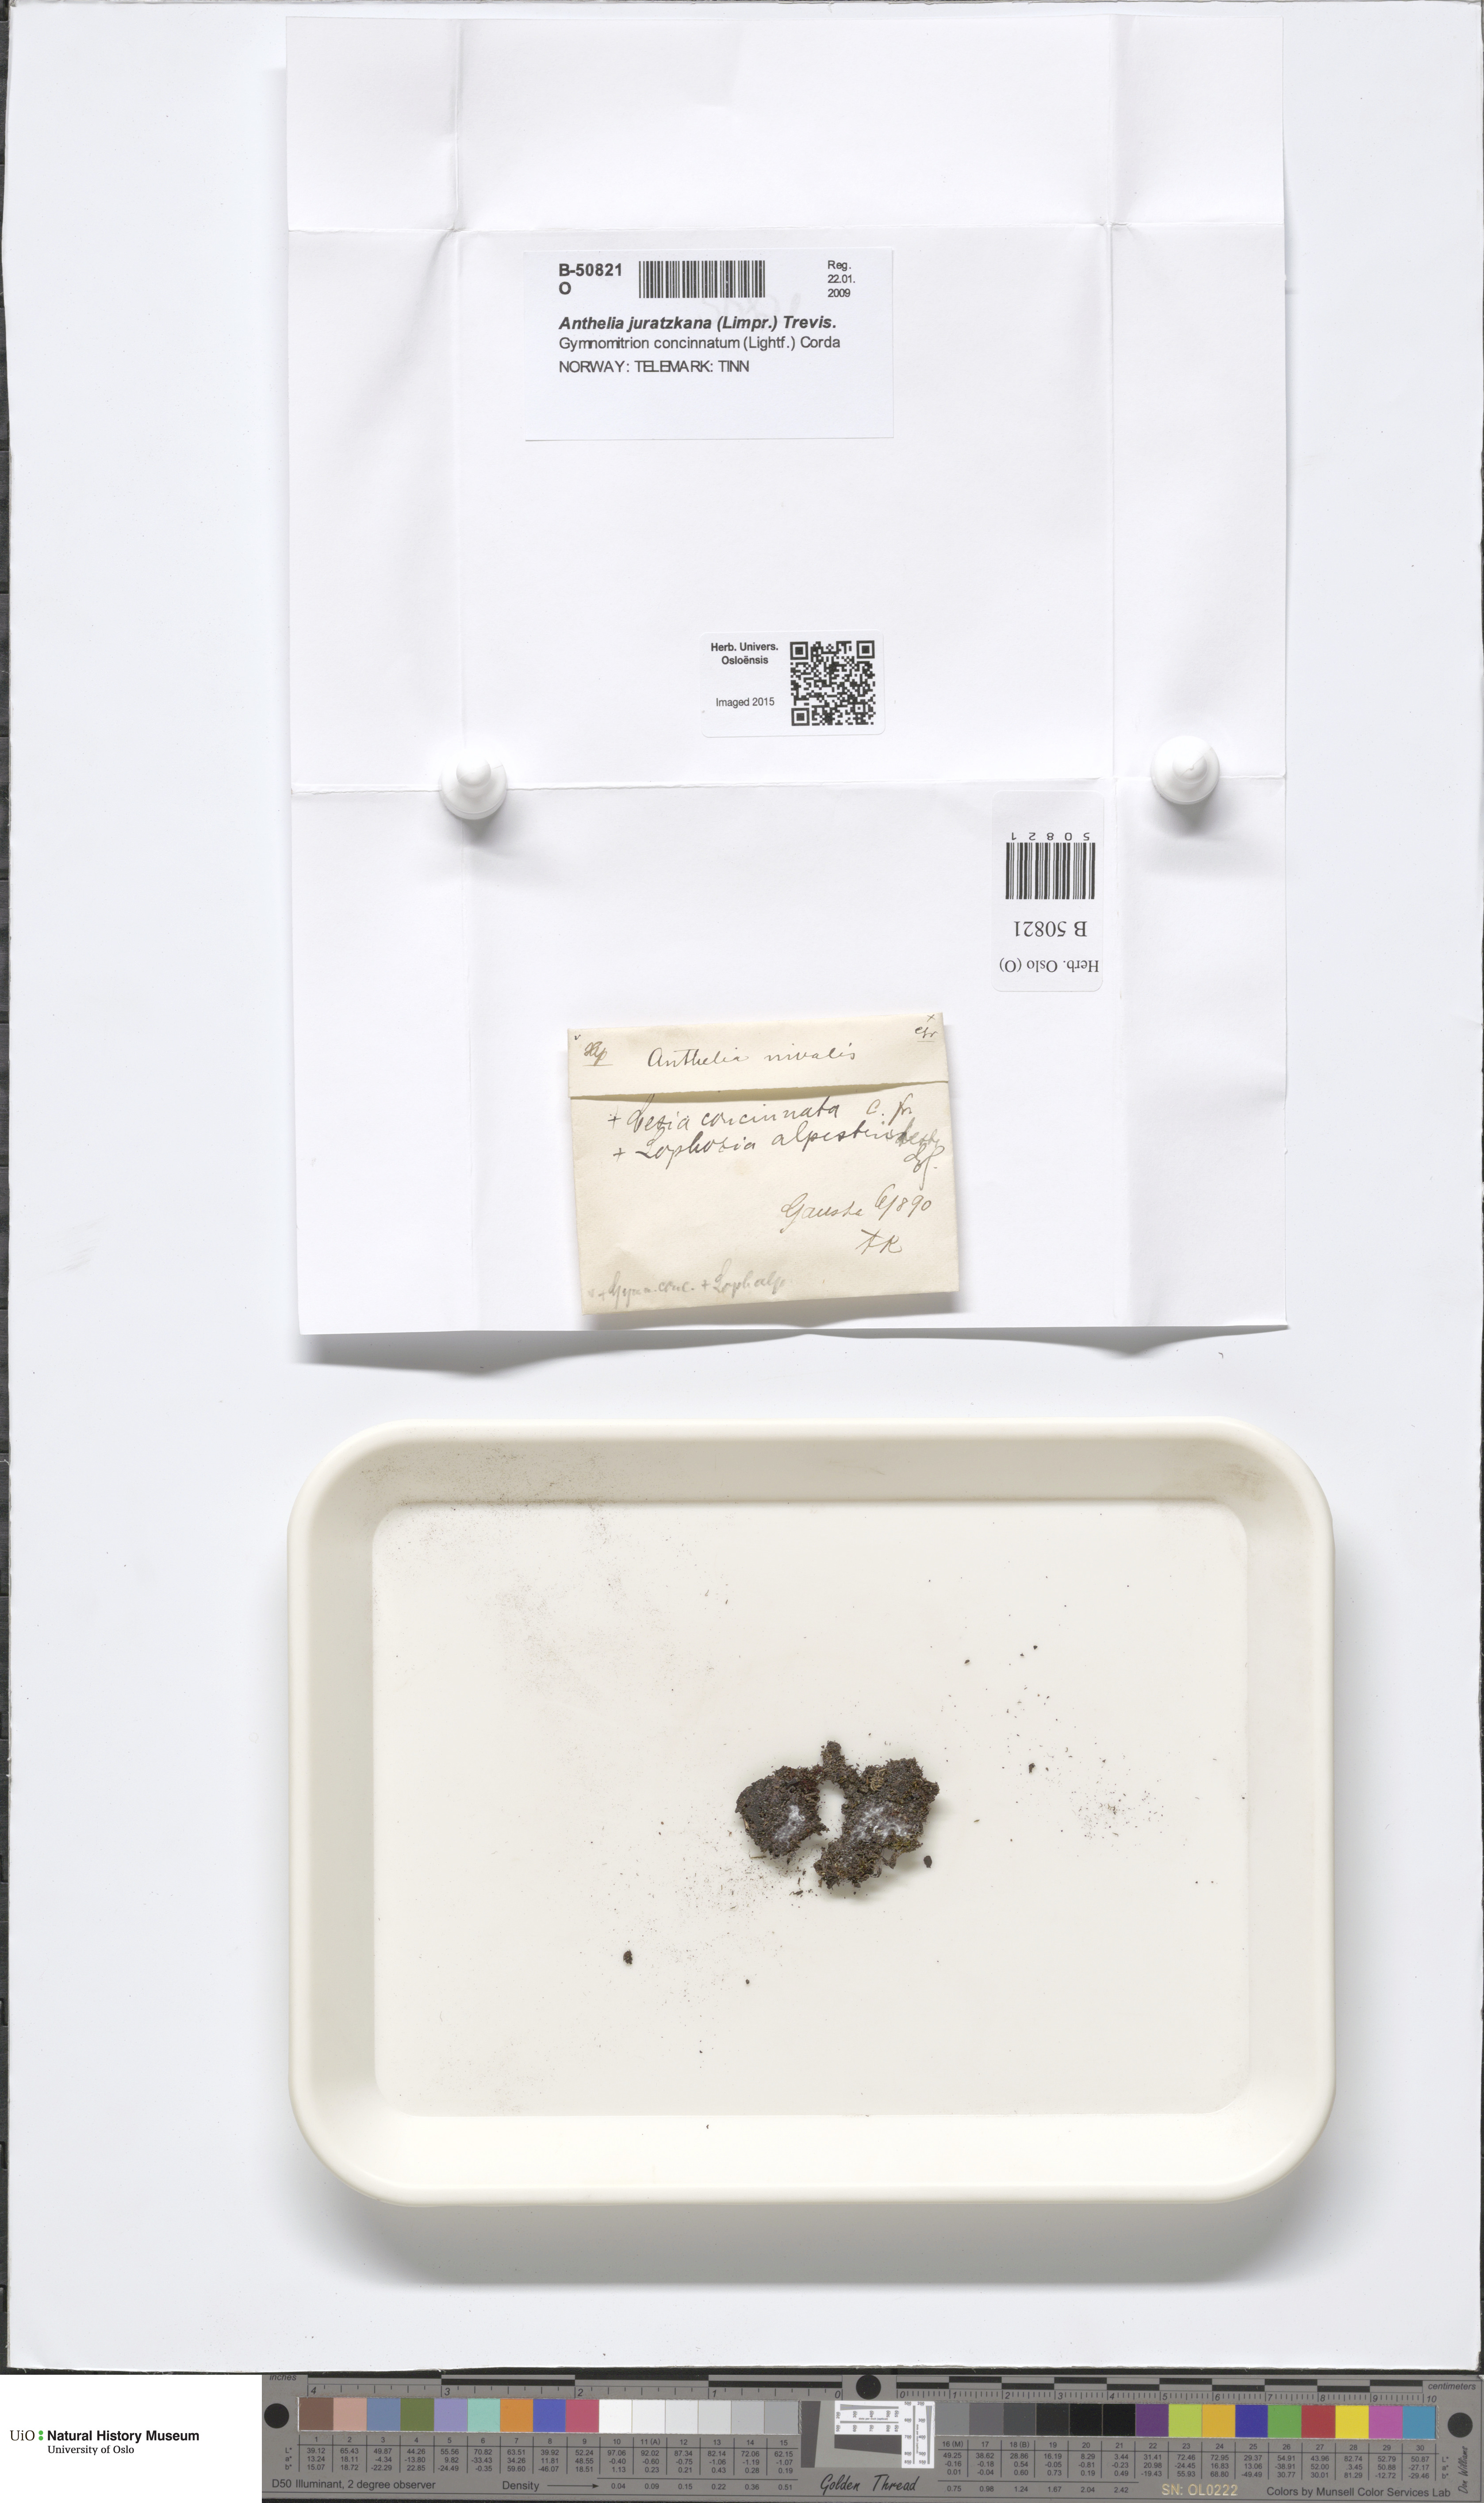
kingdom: Plantae
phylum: Marchantiophyta
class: Jungermanniopsida
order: Jungermanniales
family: Antheliaceae
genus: Anthelia
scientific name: Anthelia juratzkana
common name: Juratzka s silverwort
